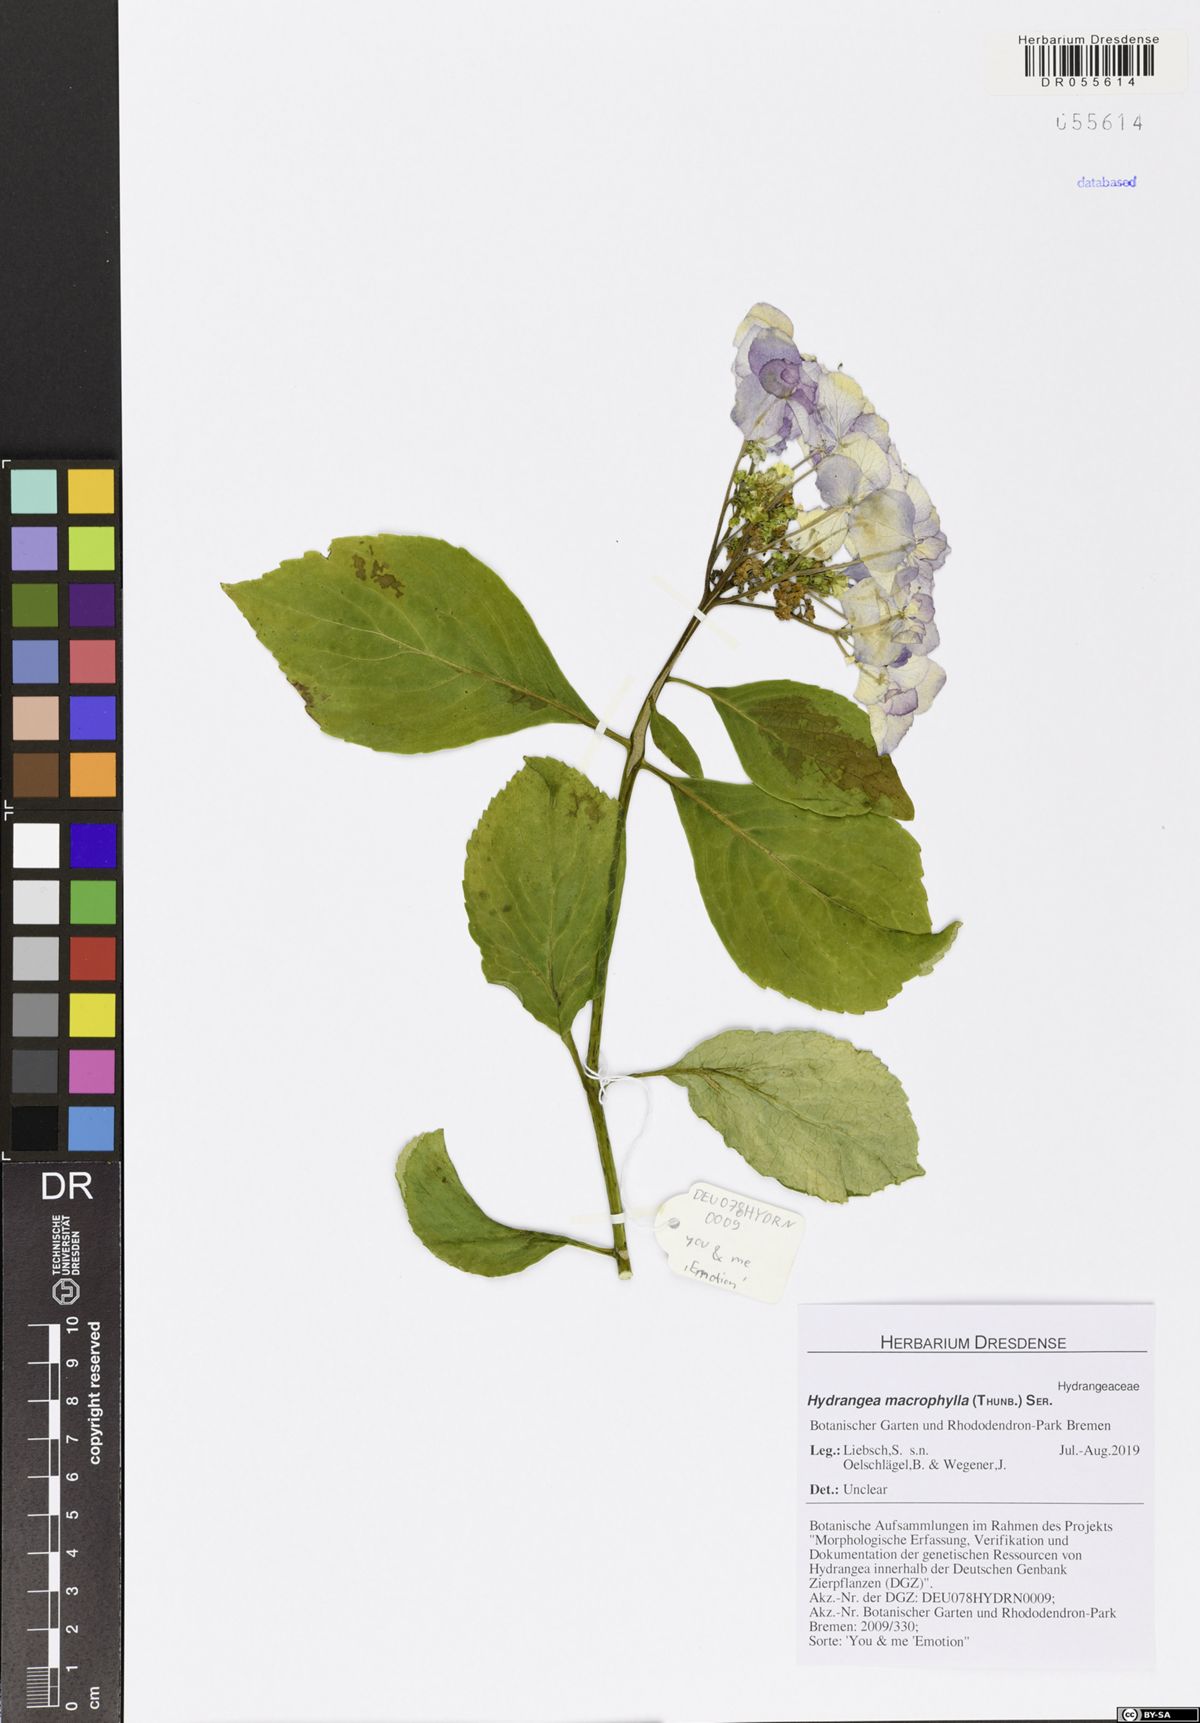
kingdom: Plantae
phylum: Tracheophyta
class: Magnoliopsida
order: Cornales
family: Hydrangeaceae
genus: Hydrangea
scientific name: Hydrangea macrophylla
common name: Hydrangea
